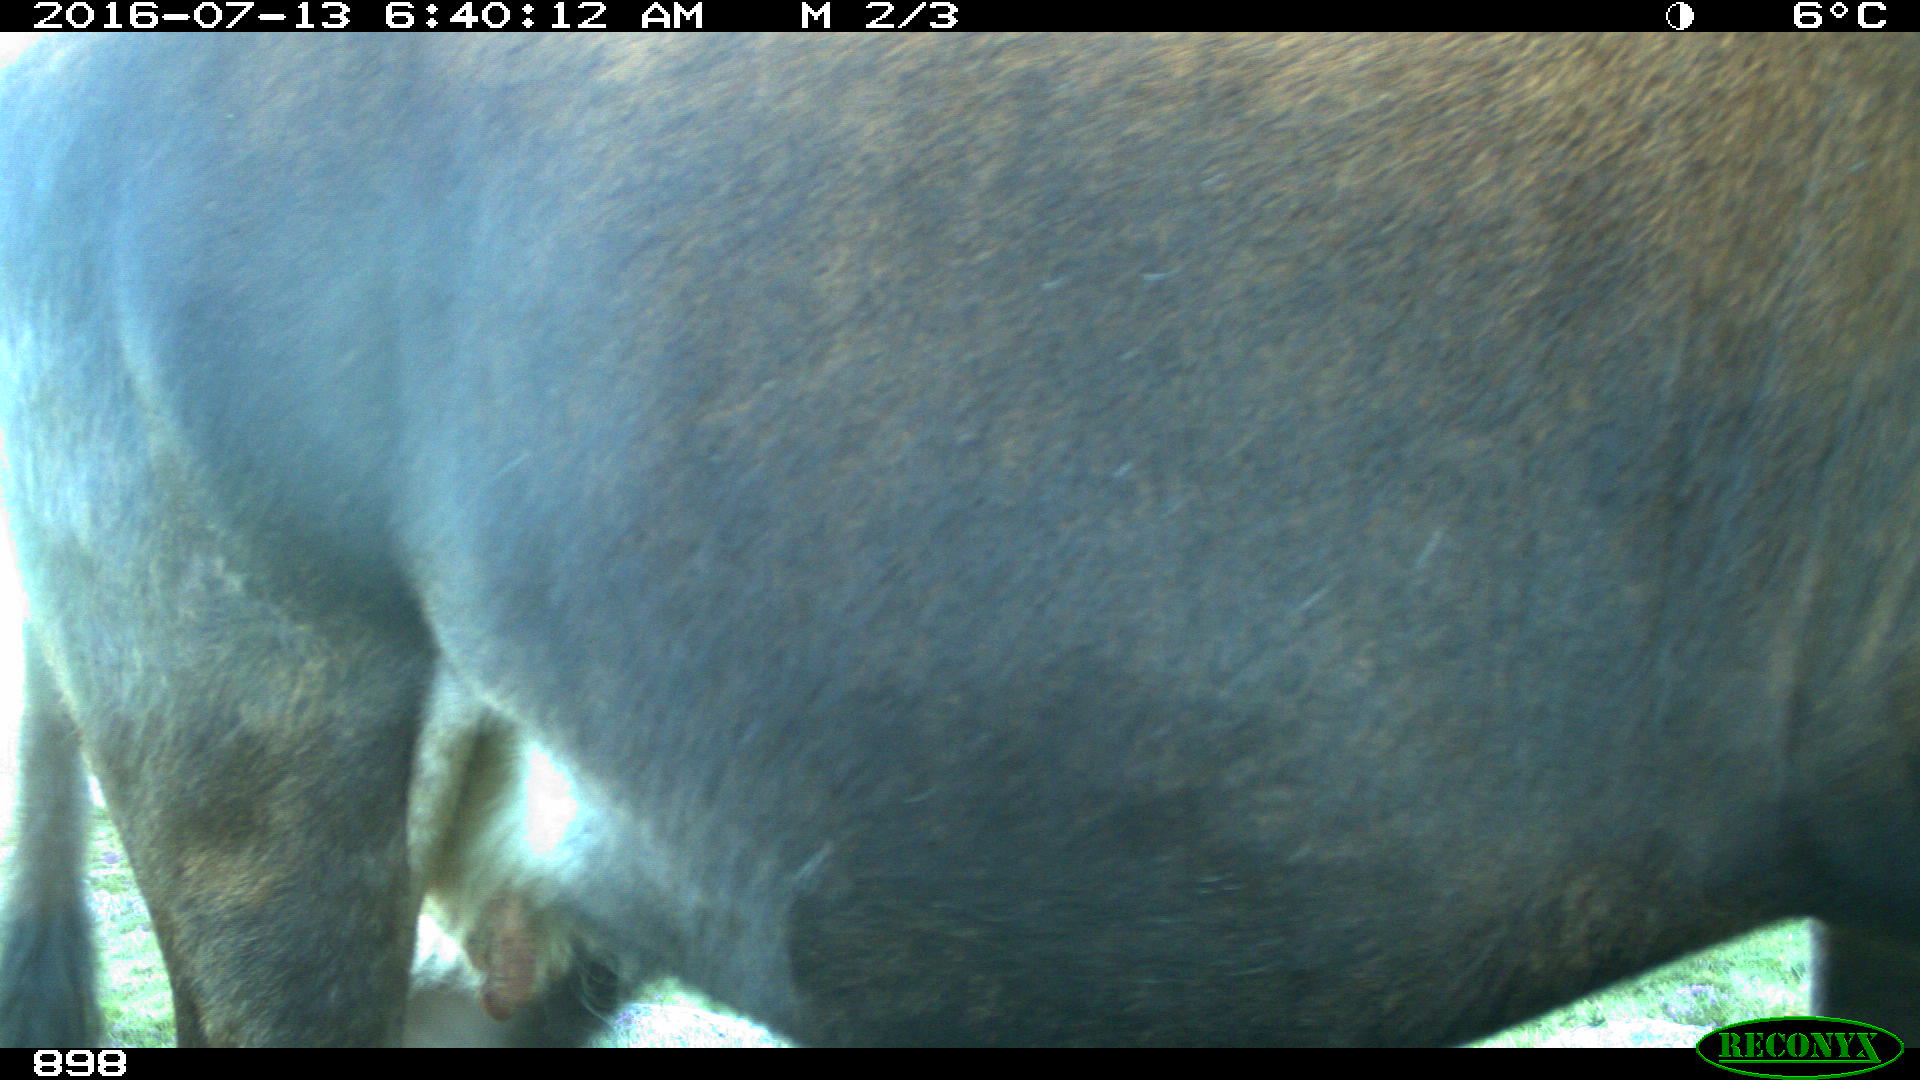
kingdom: Animalia
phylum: Chordata
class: Mammalia
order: Artiodactyla
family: Bovidae
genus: Bos
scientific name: Bos taurus
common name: Domesticated cattle
